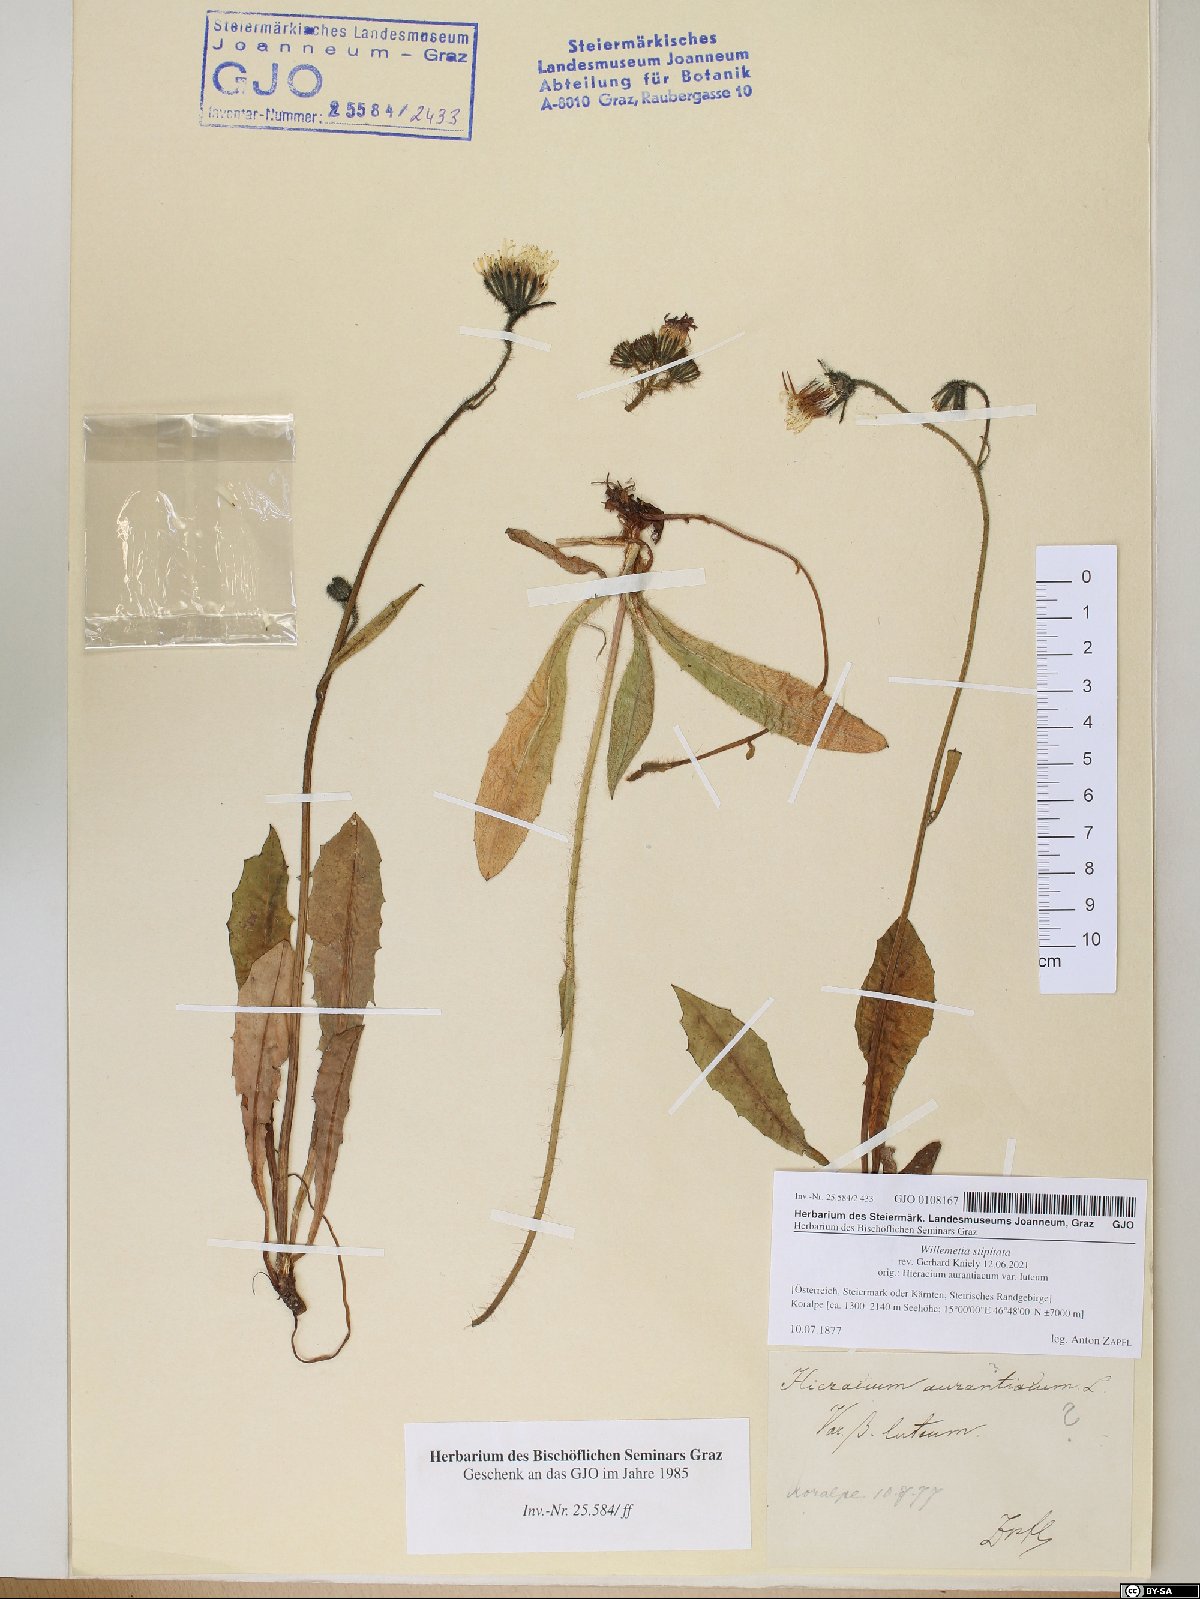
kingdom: Plantae
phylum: Tracheophyta
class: Magnoliopsida
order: Asterales
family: Asteraceae
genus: Willemetia
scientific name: Willemetia stipitata
